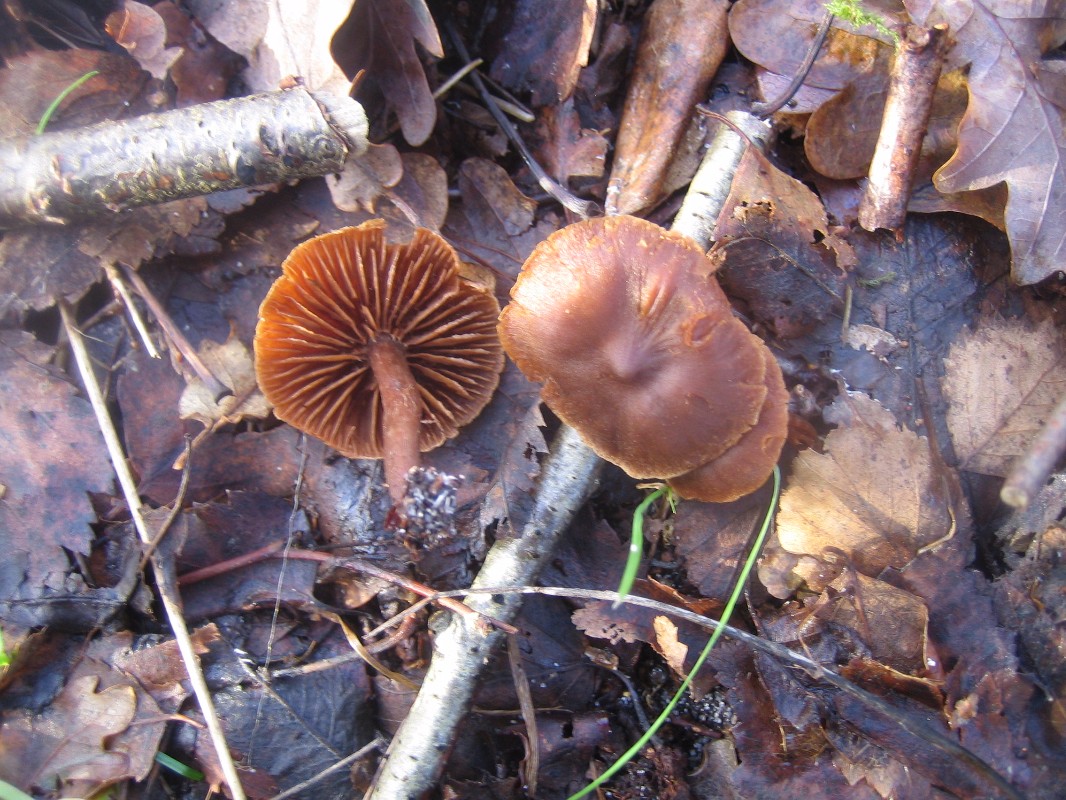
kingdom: Fungi
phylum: Basidiomycota
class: Agaricomycetes
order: Agaricales
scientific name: Agaricales
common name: champignonordenen
